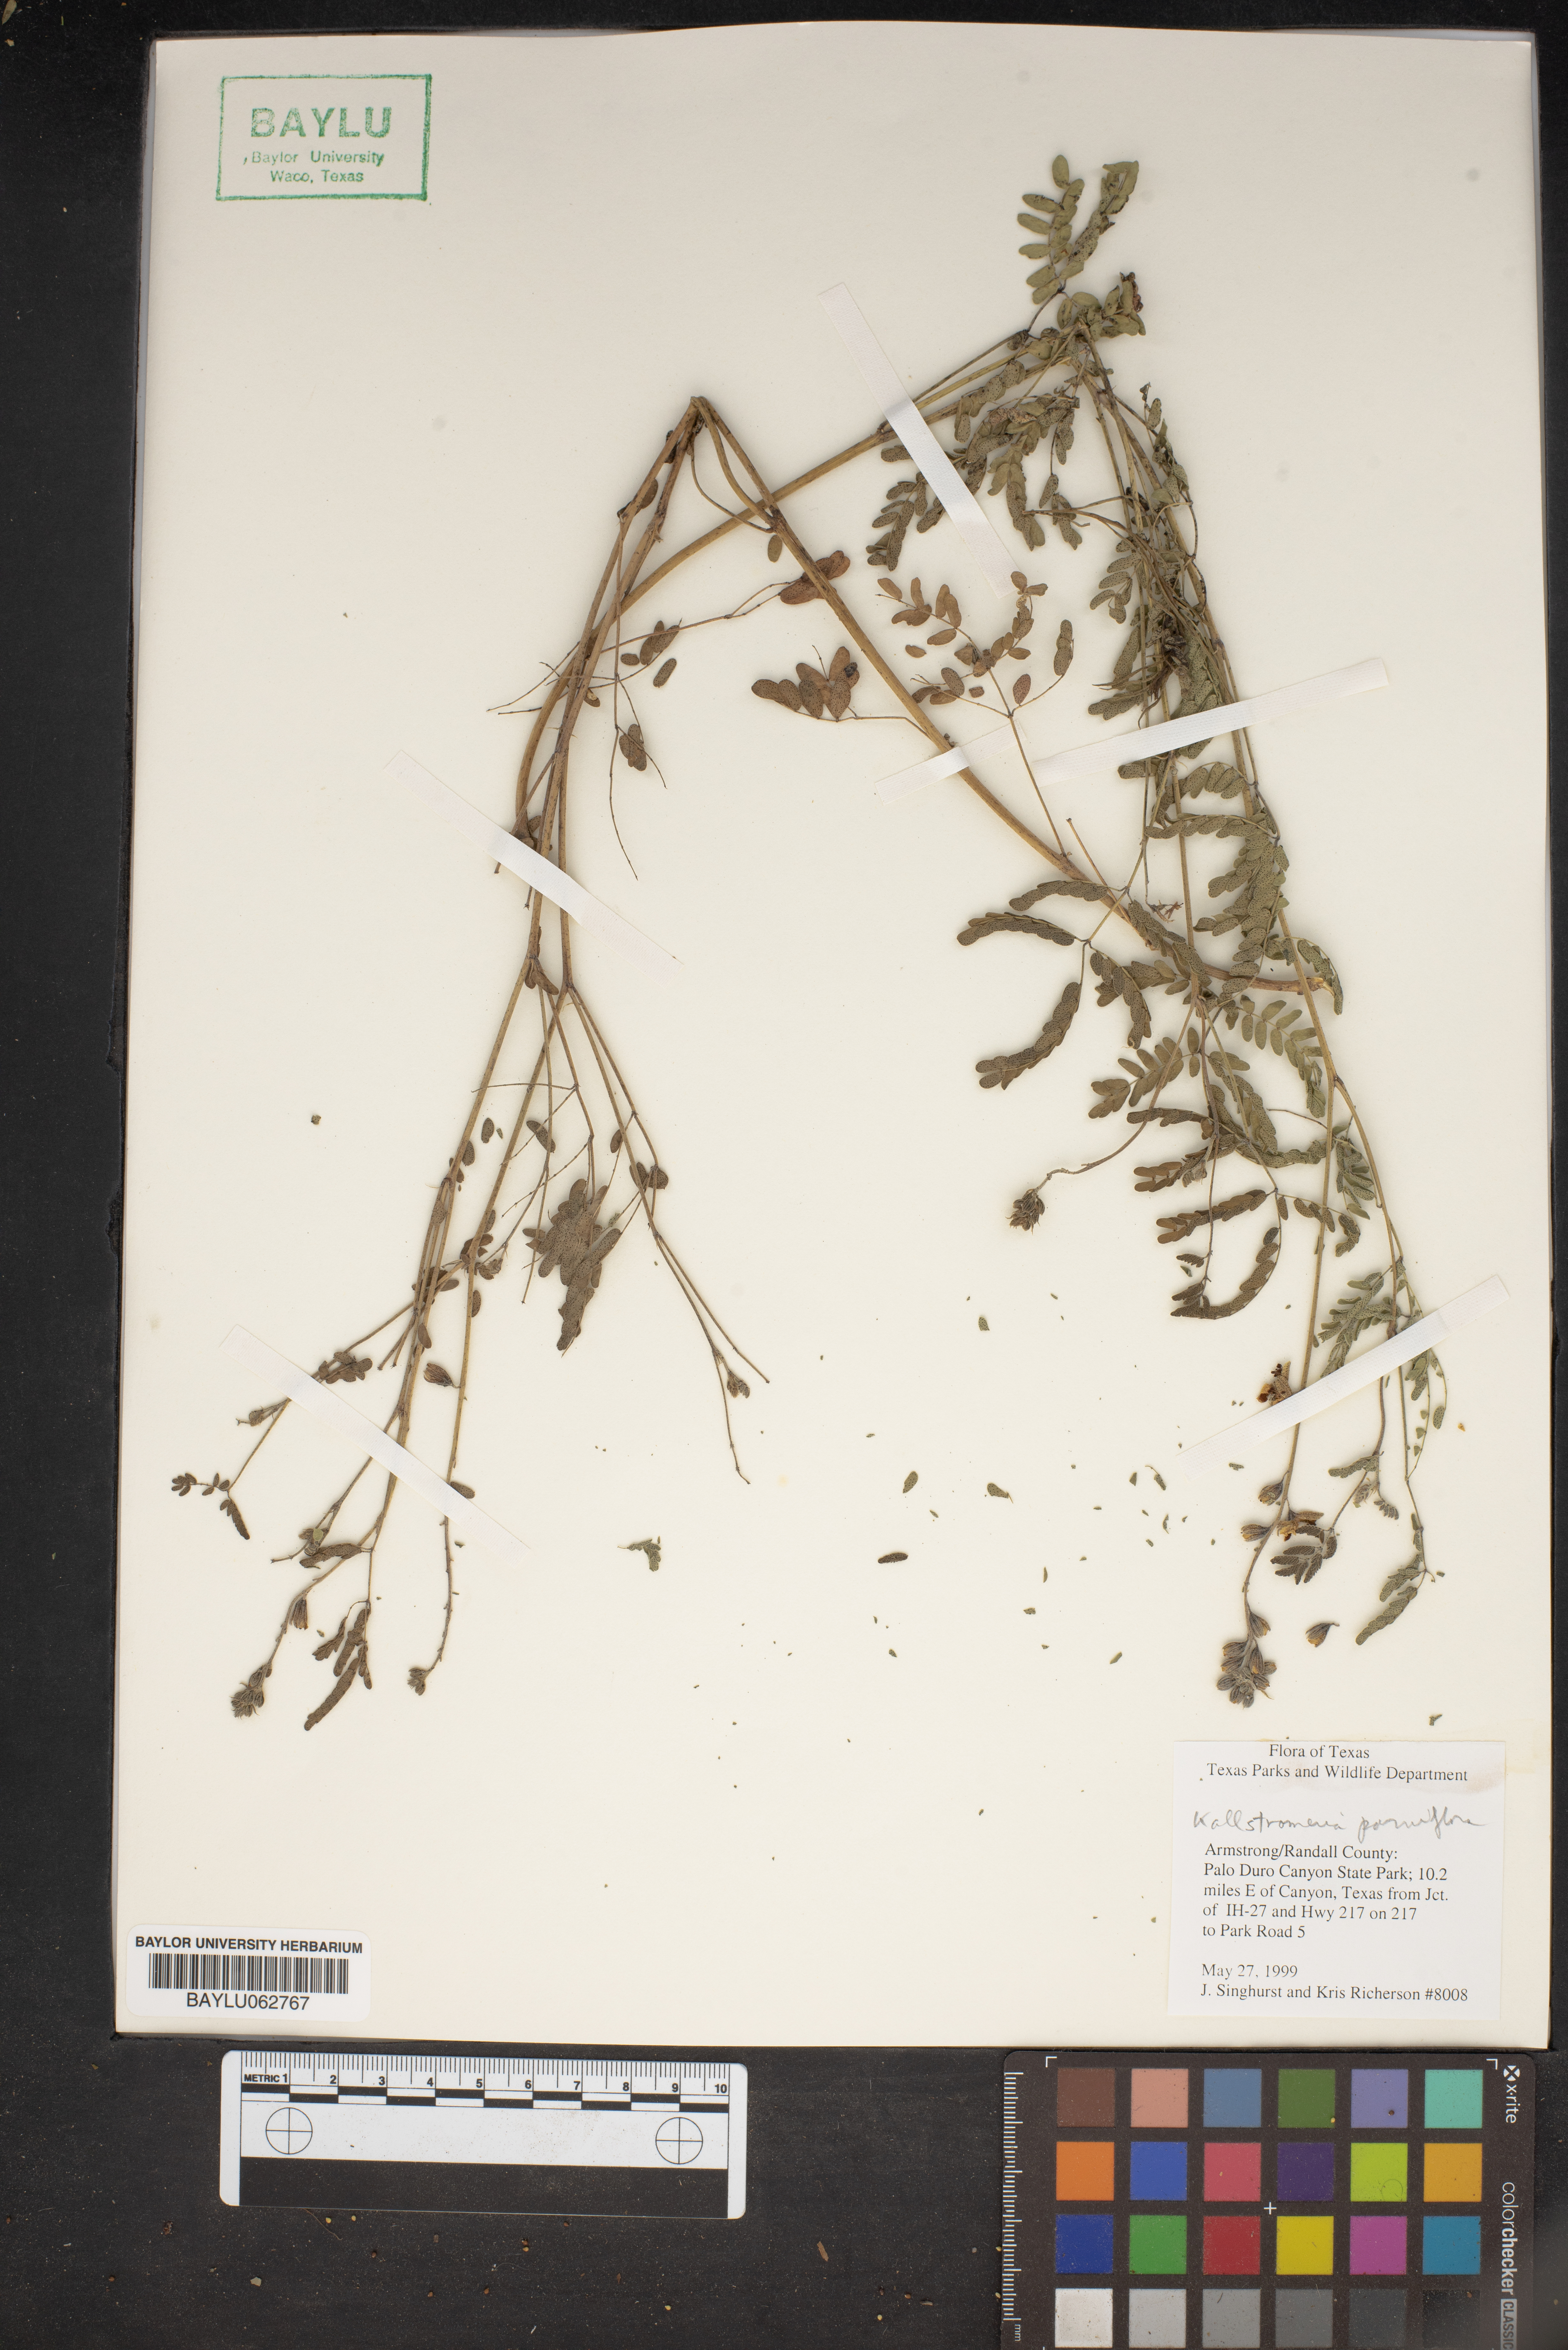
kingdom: Plantae
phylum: Tracheophyta
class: Magnoliopsida
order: Zygophyllales
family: Zygophyllaceae
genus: Kallstroemia
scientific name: Kallstroemia parviflora
